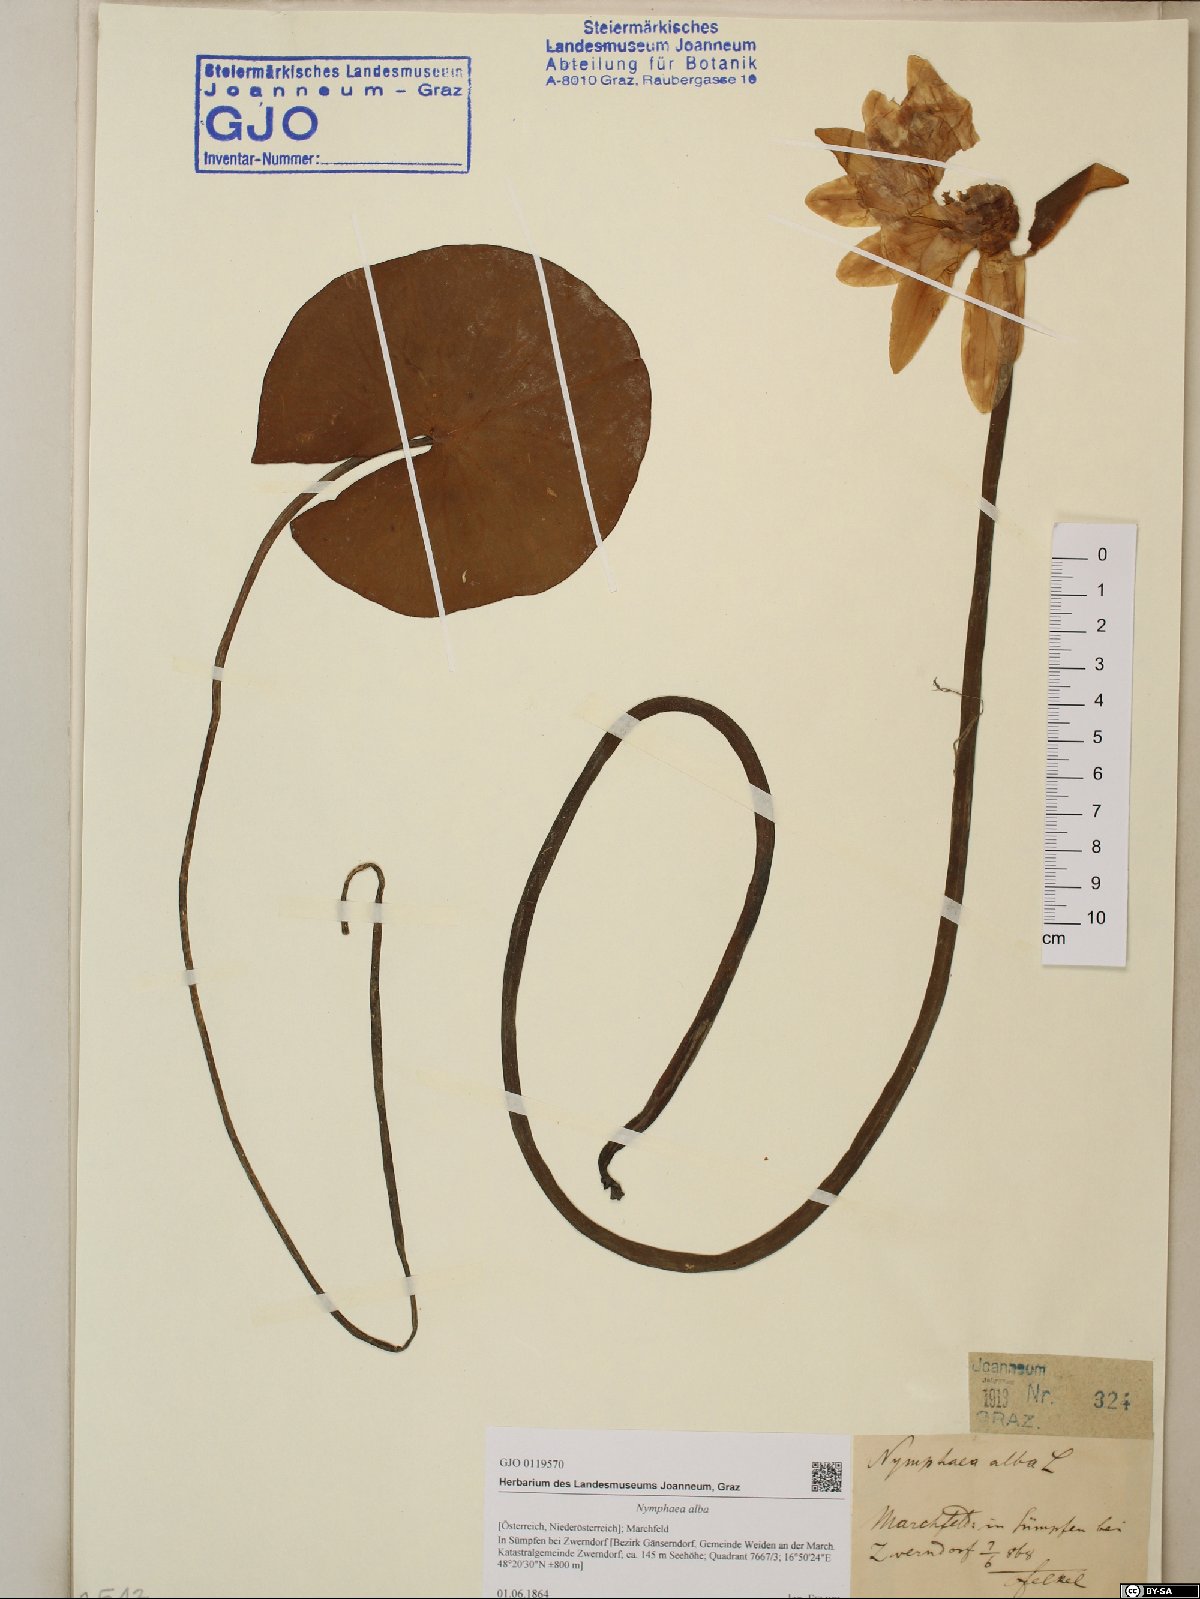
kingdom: Plantae
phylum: Tracheophyta
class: Magnoliopsida
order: Nymphaeales
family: Nymphaeaceae
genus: Nymphaea
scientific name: Nymphaea alba
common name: White water-lily
